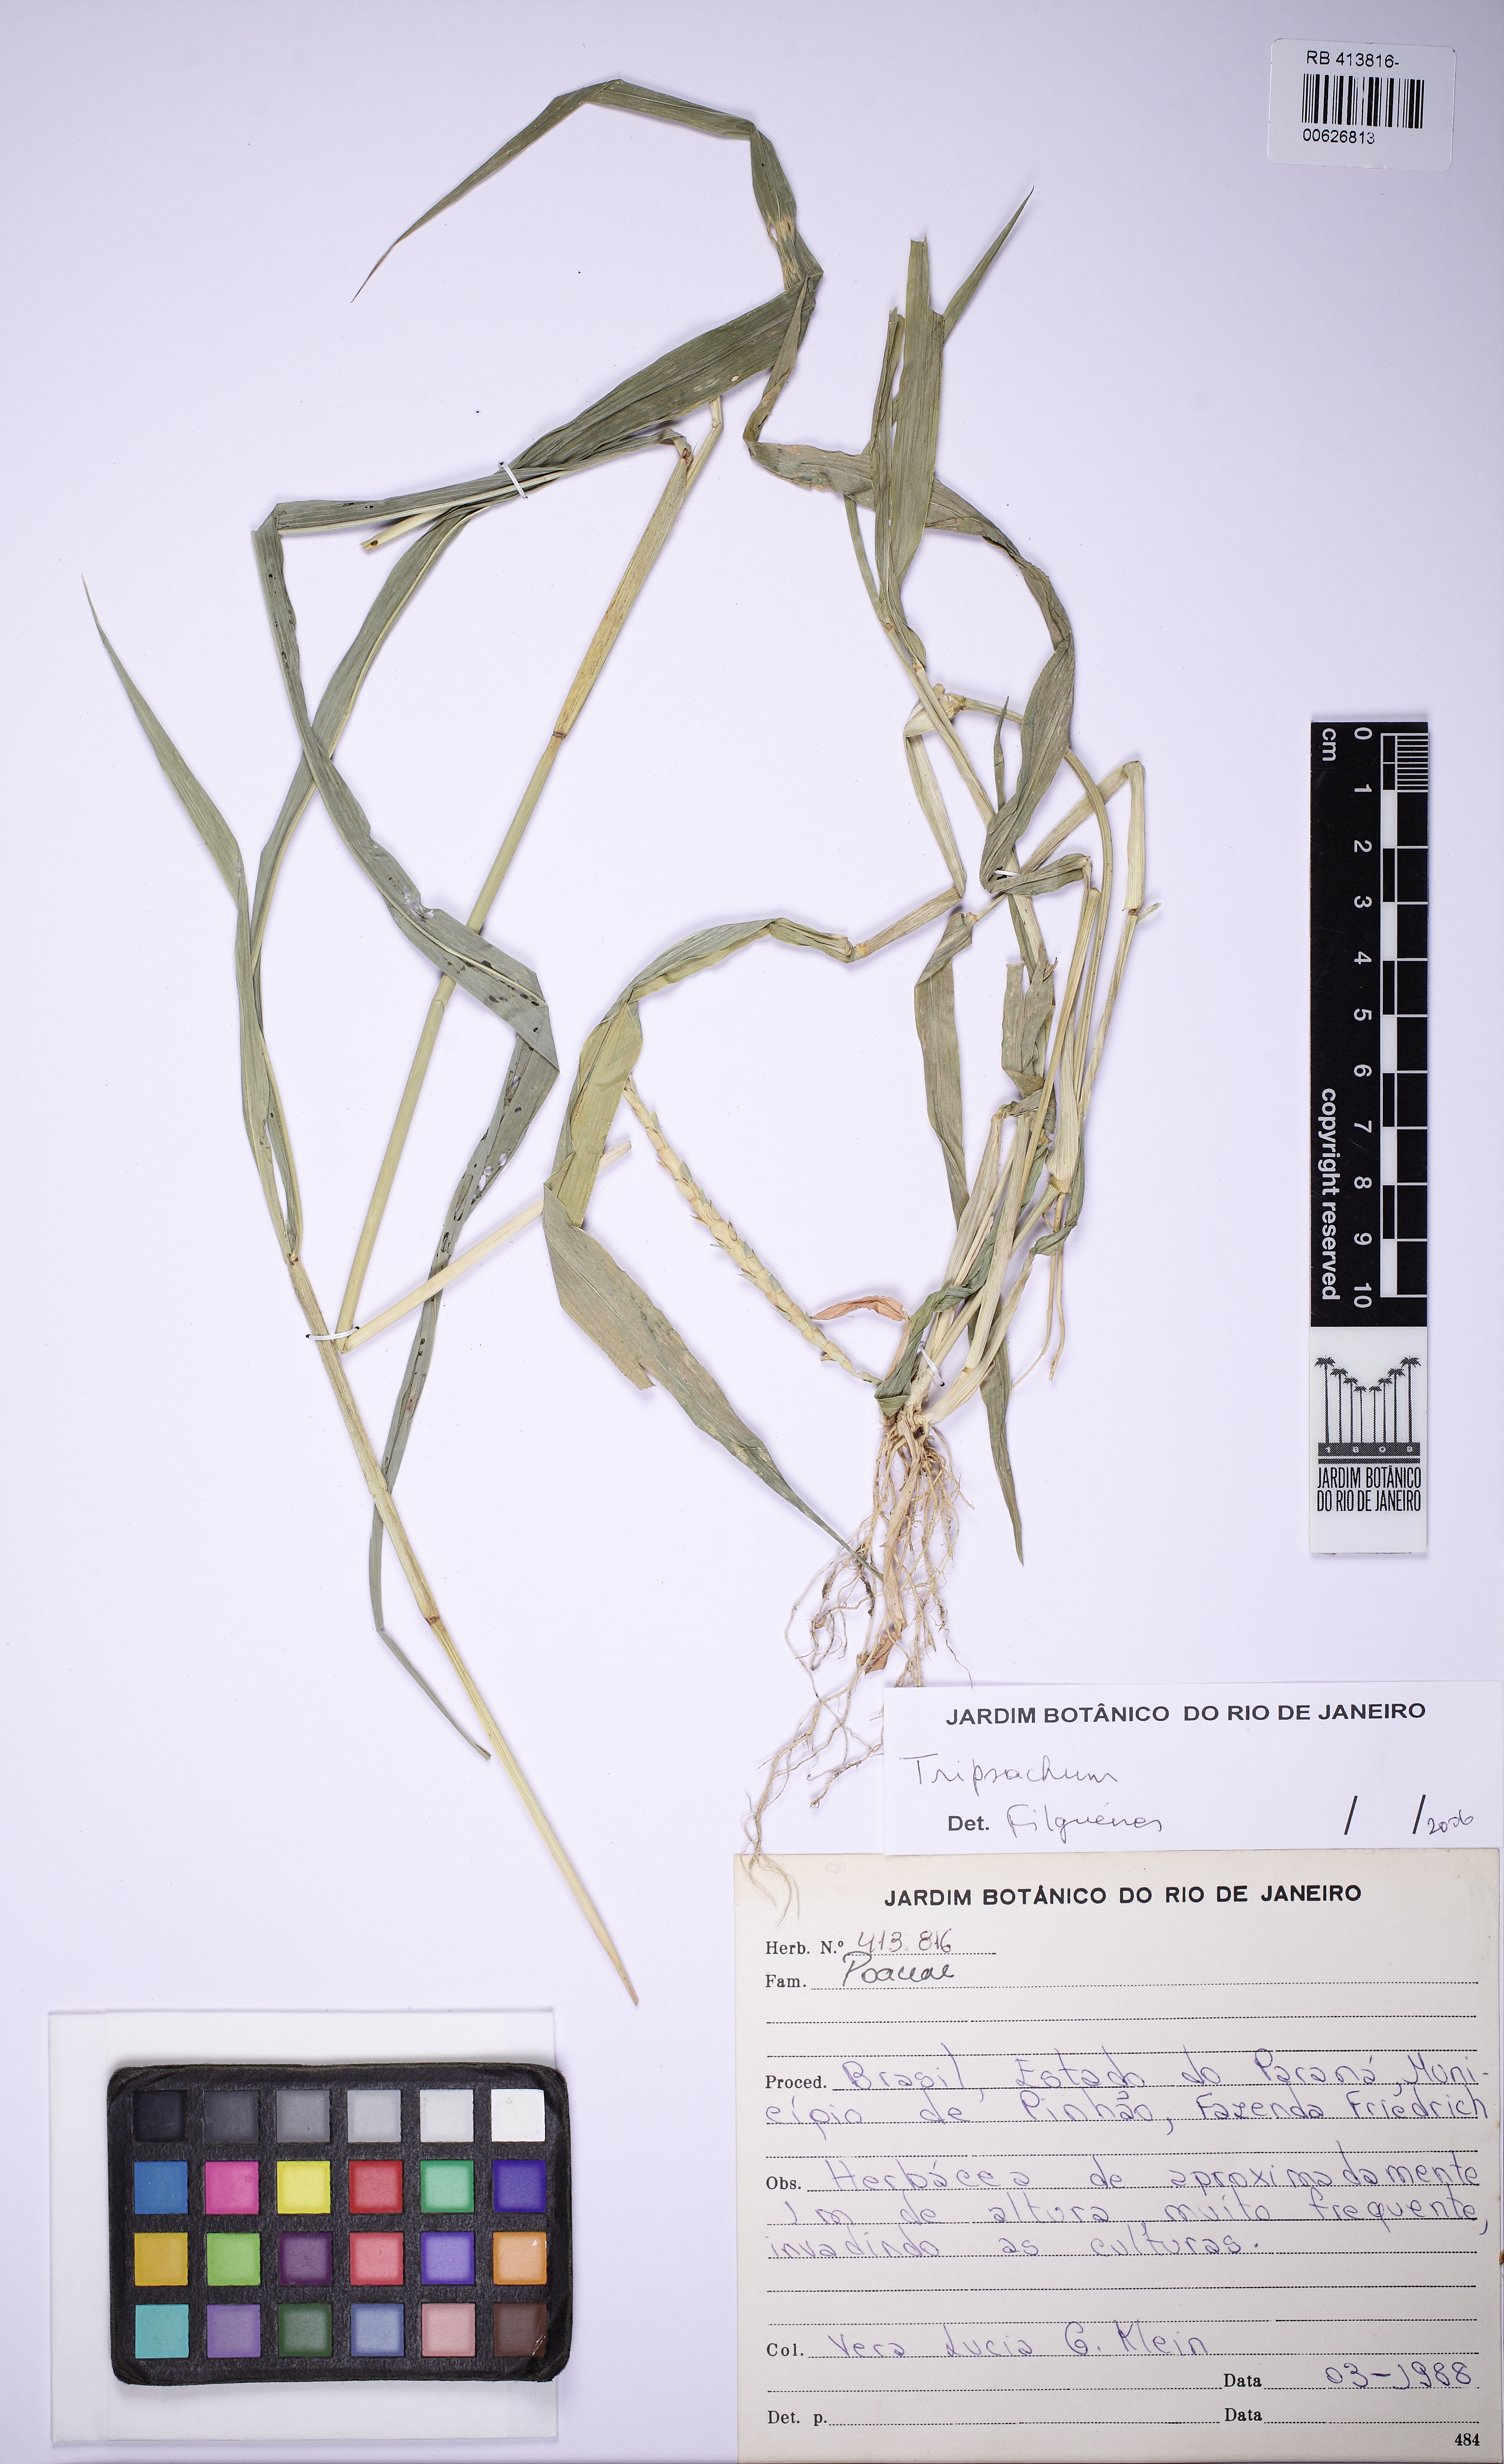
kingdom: Plantae
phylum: Tracheophyta
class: Liliopsida
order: Poales
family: Poaceae
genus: Tripsacum
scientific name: Tripsacum
